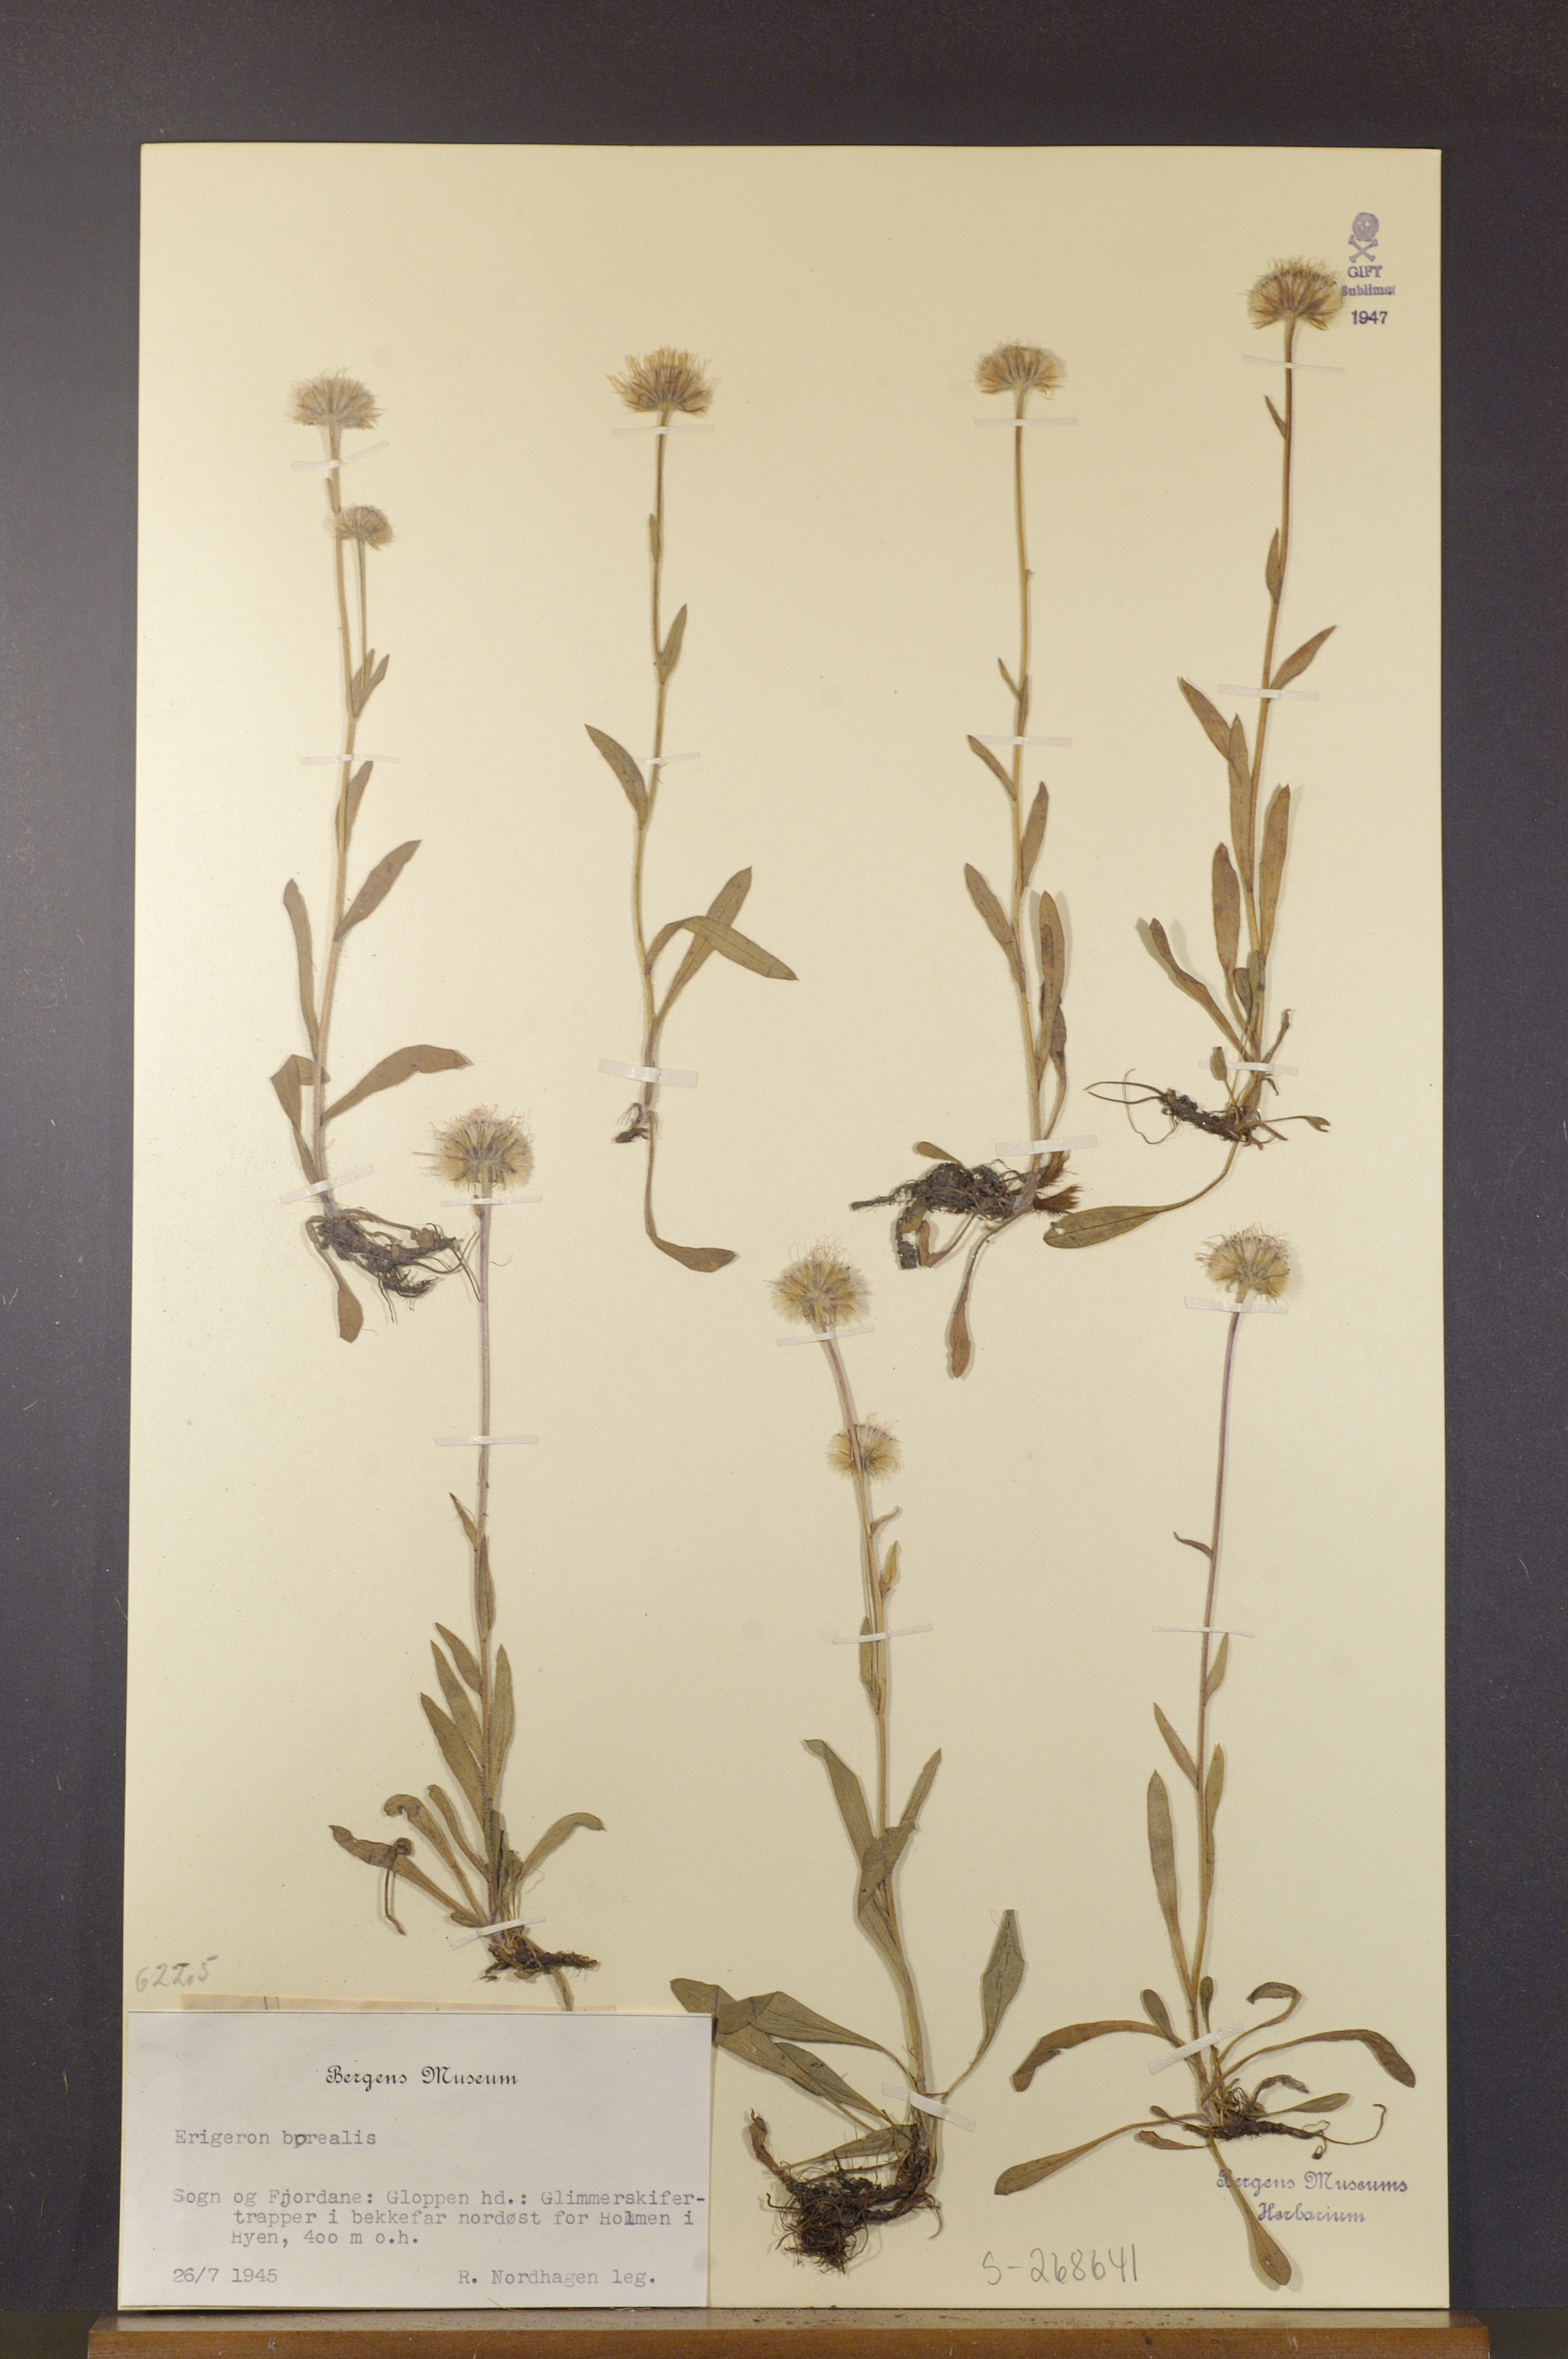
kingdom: Plantae
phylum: Tracheophyta
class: Magnoliopsida
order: Asterales
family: Asteraceae
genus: Erigeron
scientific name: Erigeron borealis
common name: Alpine fleabane
